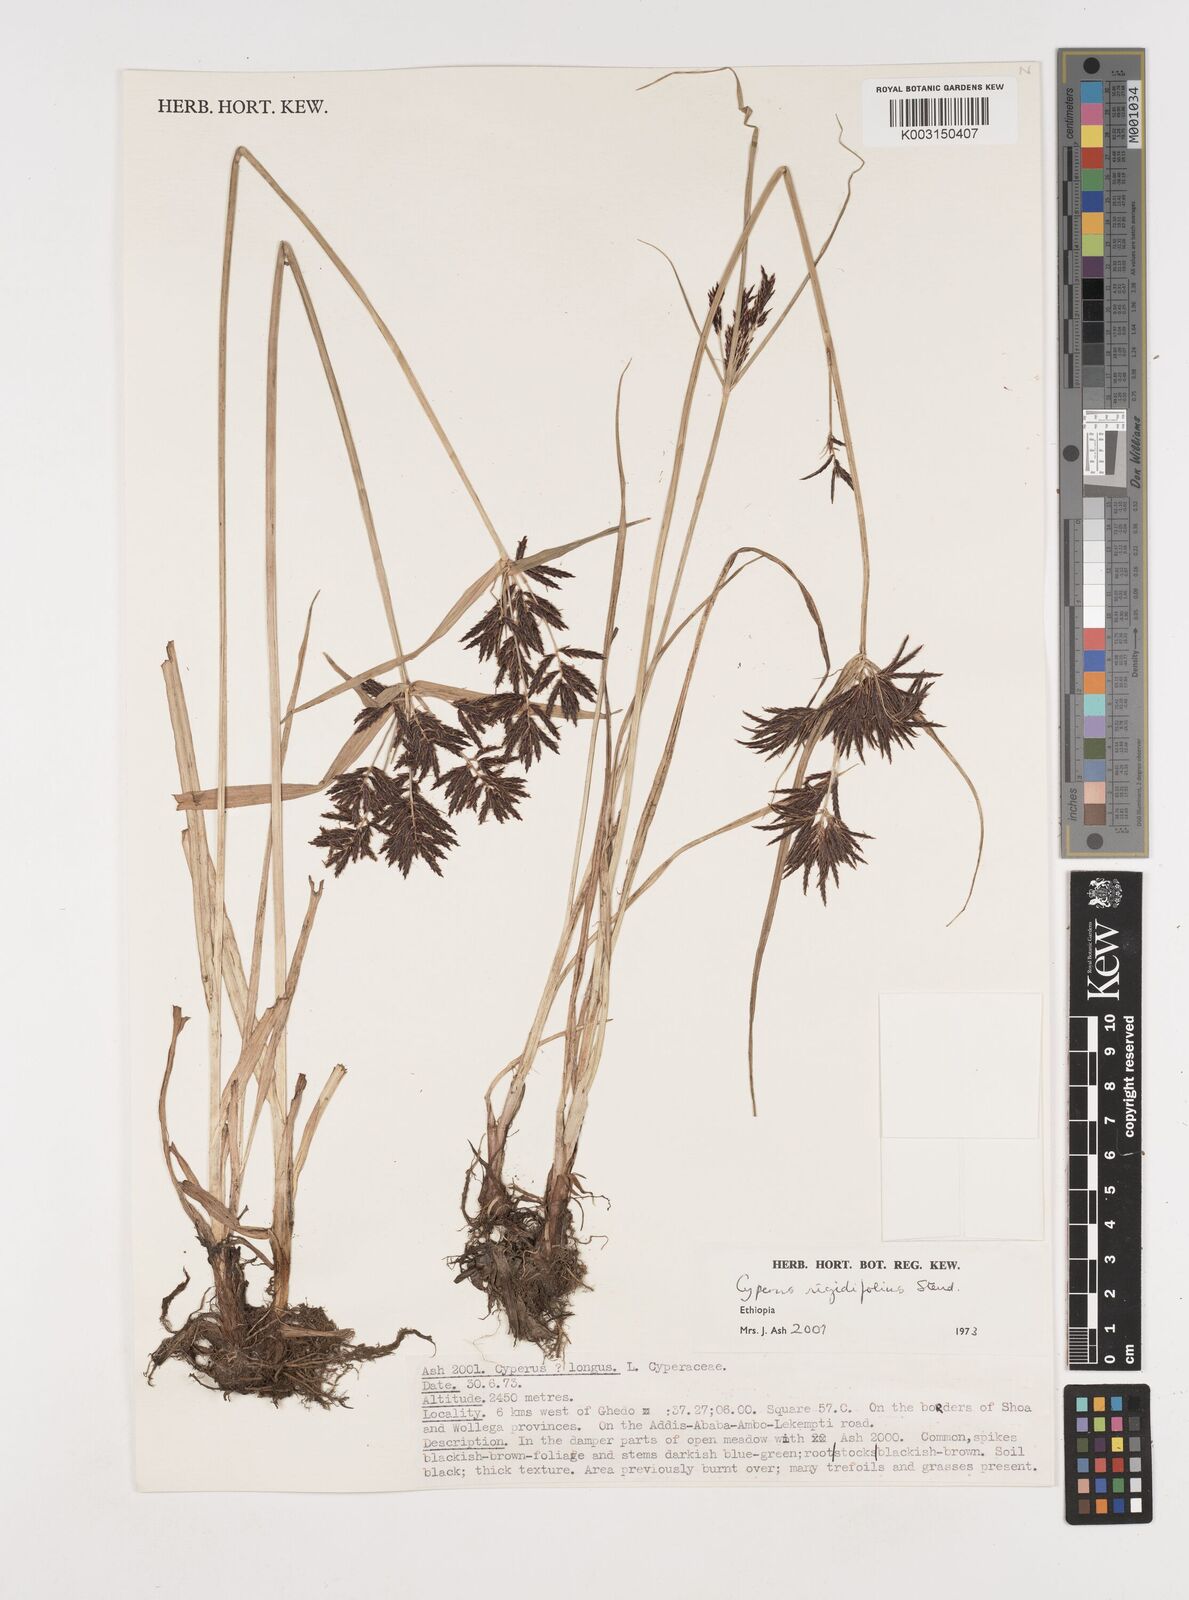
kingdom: Plantae
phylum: Tracheophyta
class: Liliopsida
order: Poales
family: Cyperaceae
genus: Cyperus
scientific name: Cyperus rigidifolius
